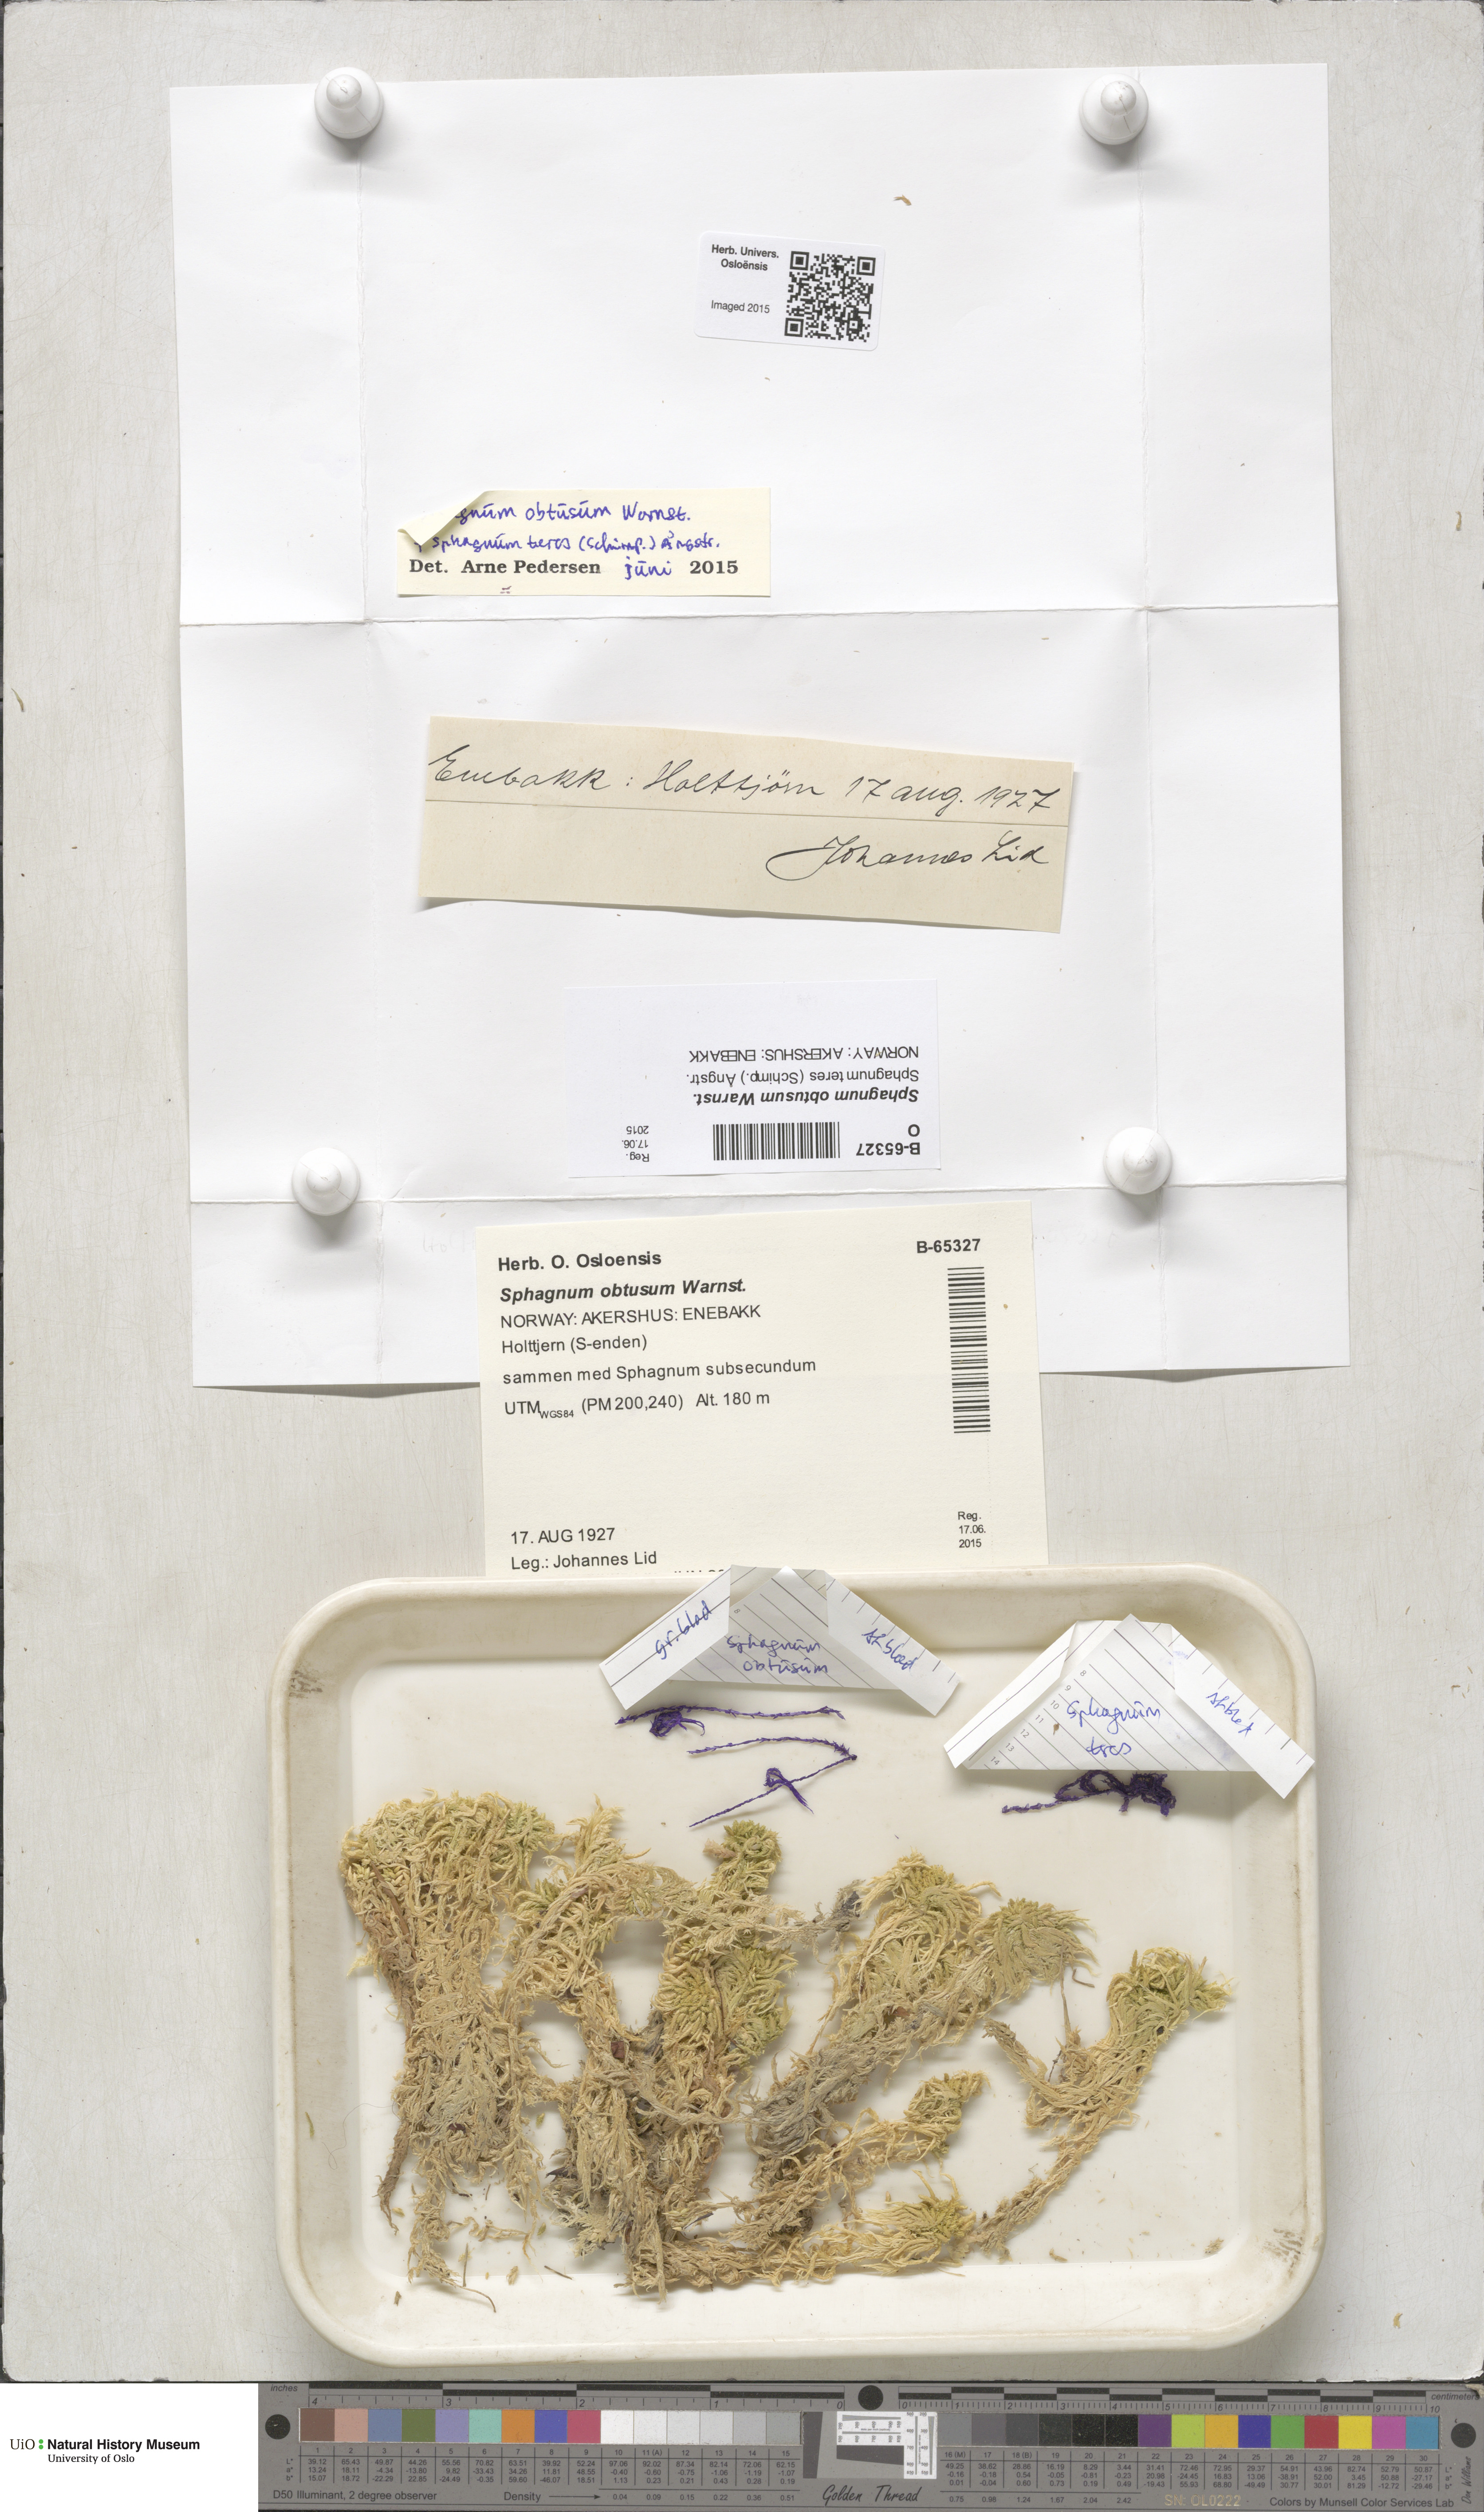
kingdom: Plantae
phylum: Bryophyta
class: Sphagnopsida
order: Sphagnales
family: Sphagnaceae
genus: Sphagnum
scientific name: Sphagnum obtusum
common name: Obtuse peat moss
